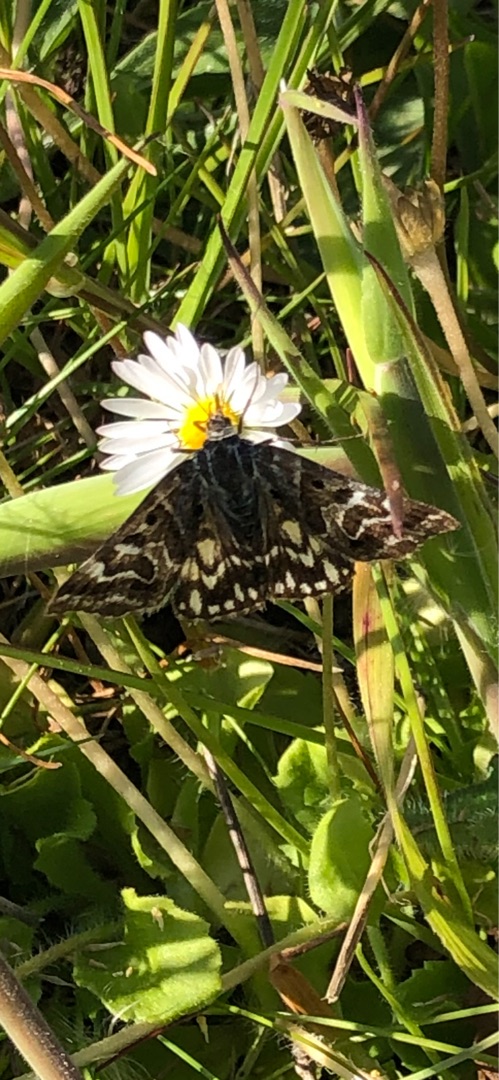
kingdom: Animalia
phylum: Arthropoda
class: Insecta
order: Lepidoptera
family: Erebidae
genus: Callistege
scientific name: Callistege mi
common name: Marmoreret kløverugle
